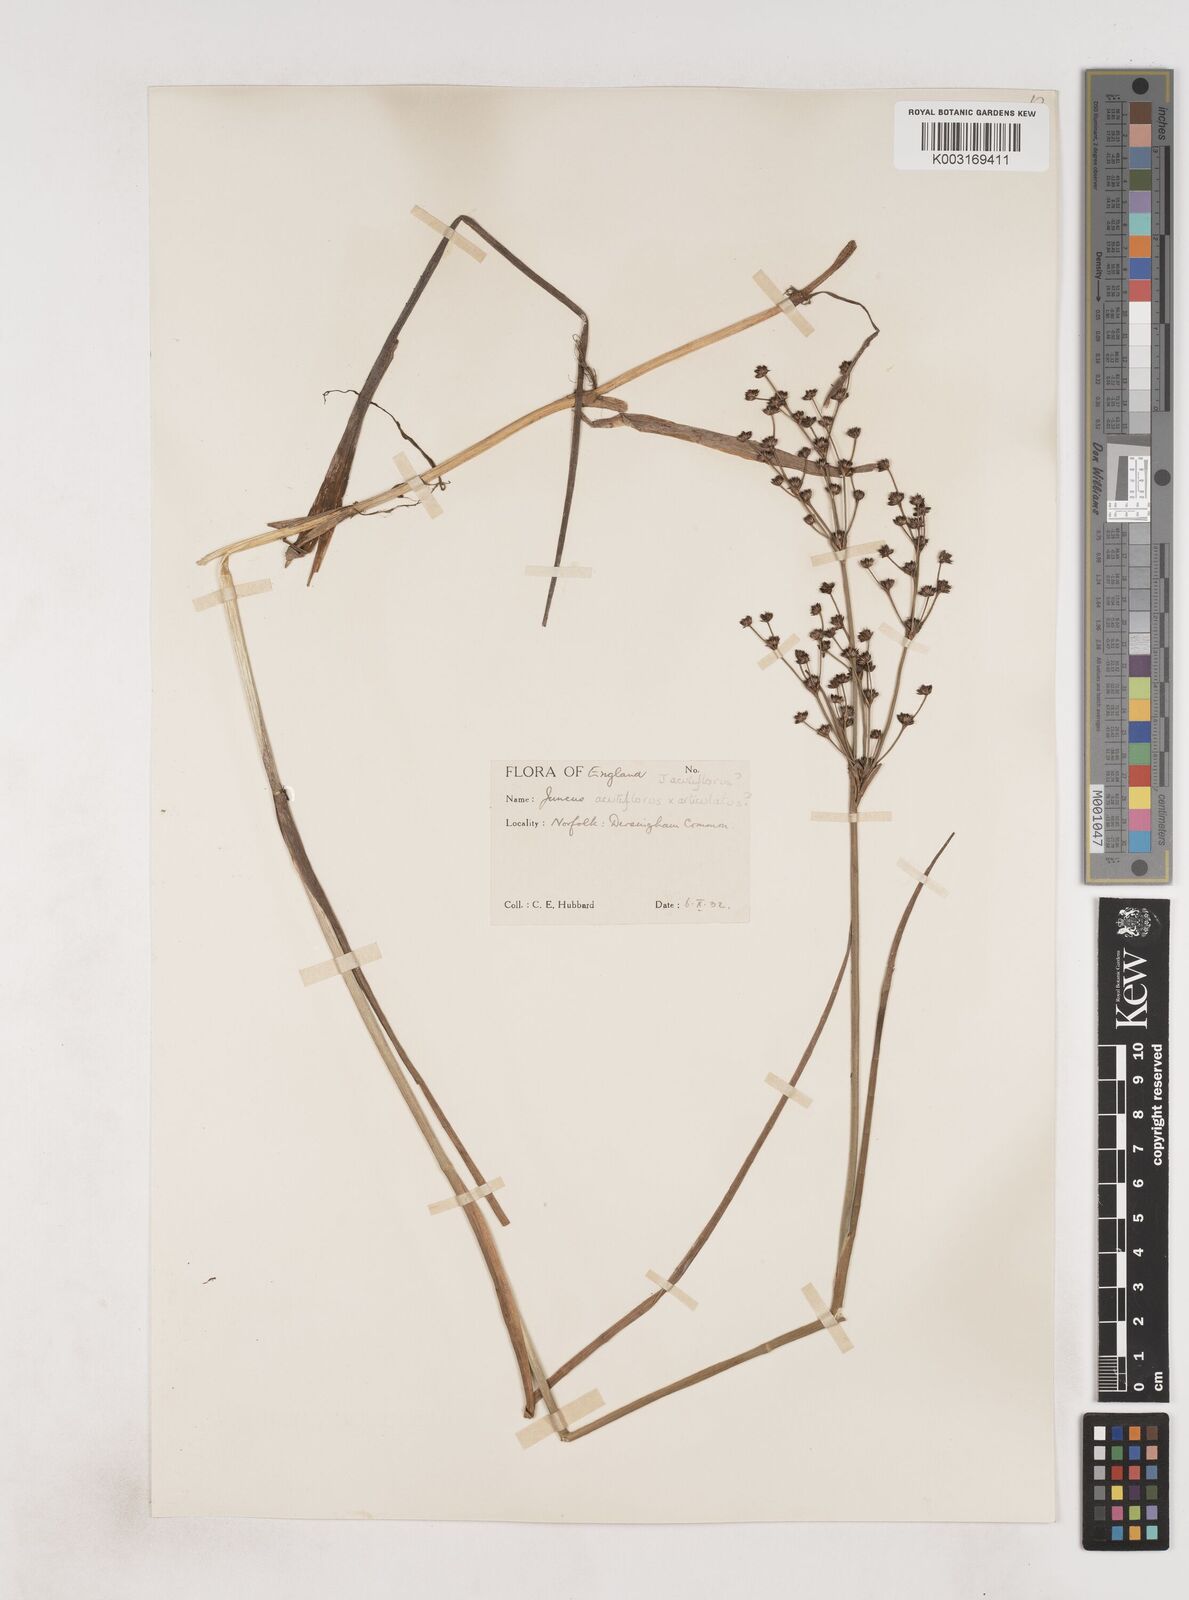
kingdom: Plantae
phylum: Tracheophyta
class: Liliopsida
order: Poales
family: Juncaceae
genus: Juncus
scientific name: Juncus
